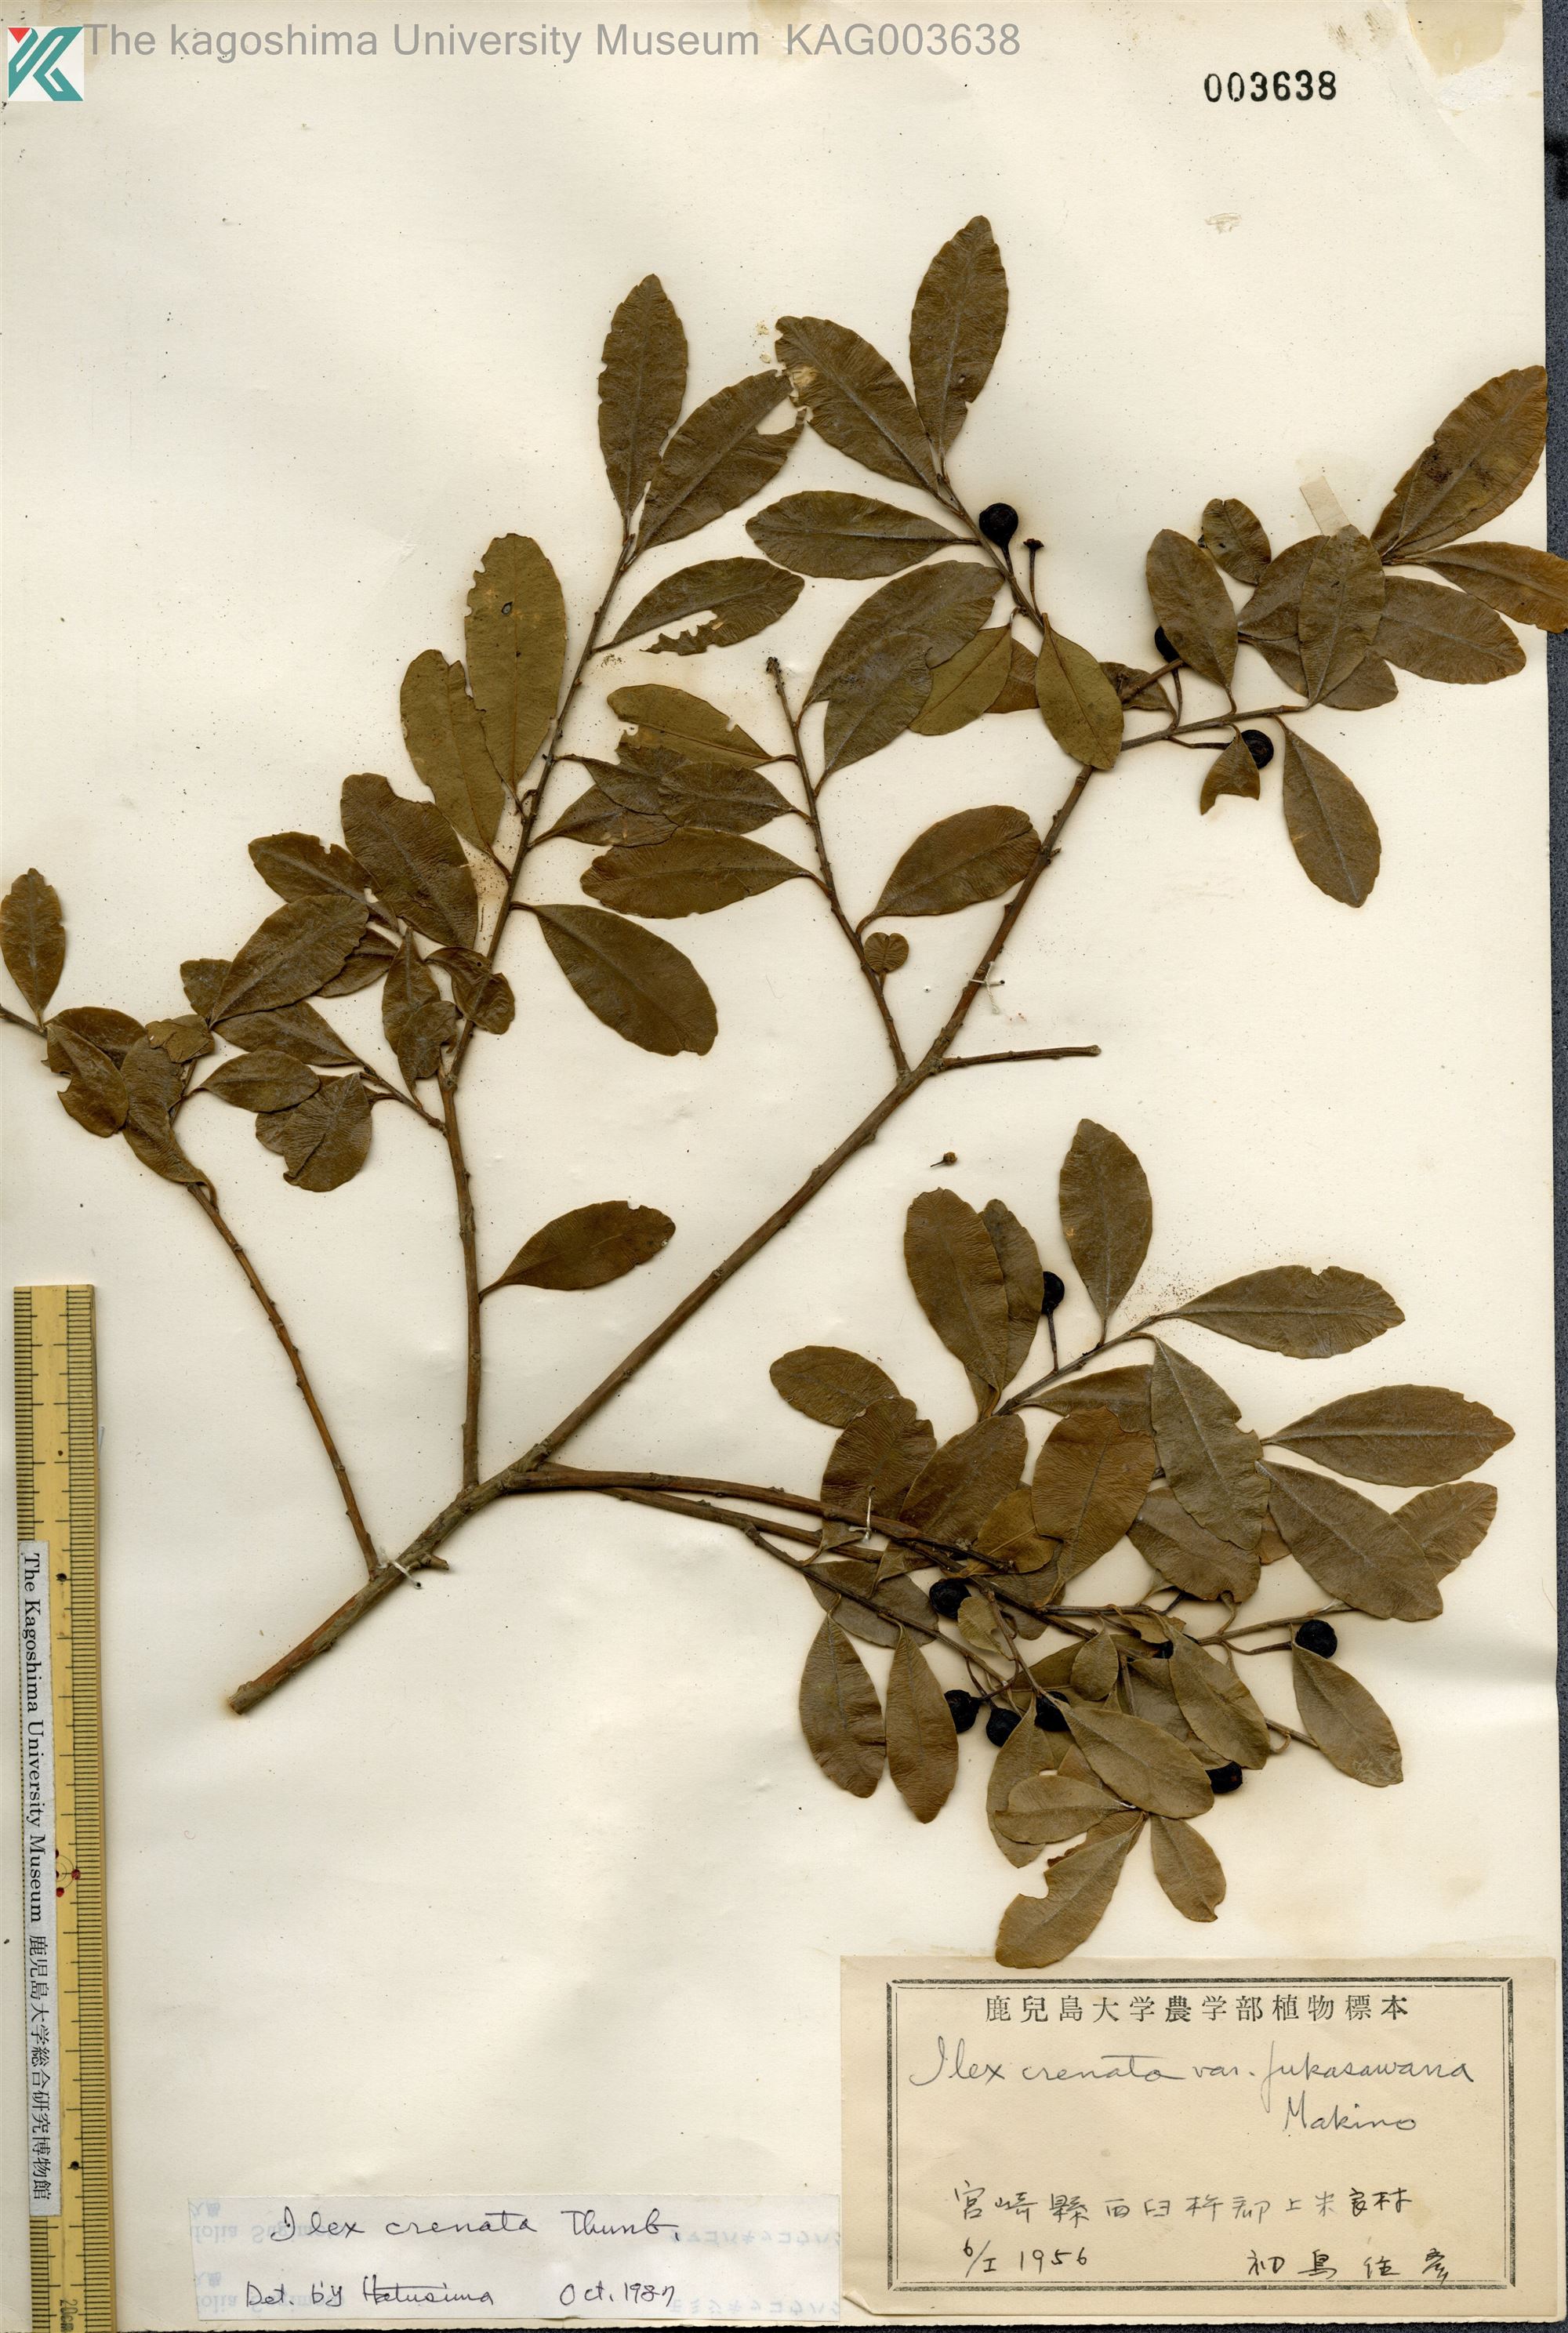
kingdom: Plantae
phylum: Tracheophyta
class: Magnoliopsida
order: Aquifoliales
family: Aquifoliaceae
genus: Ilex
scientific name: Ilex crenata
